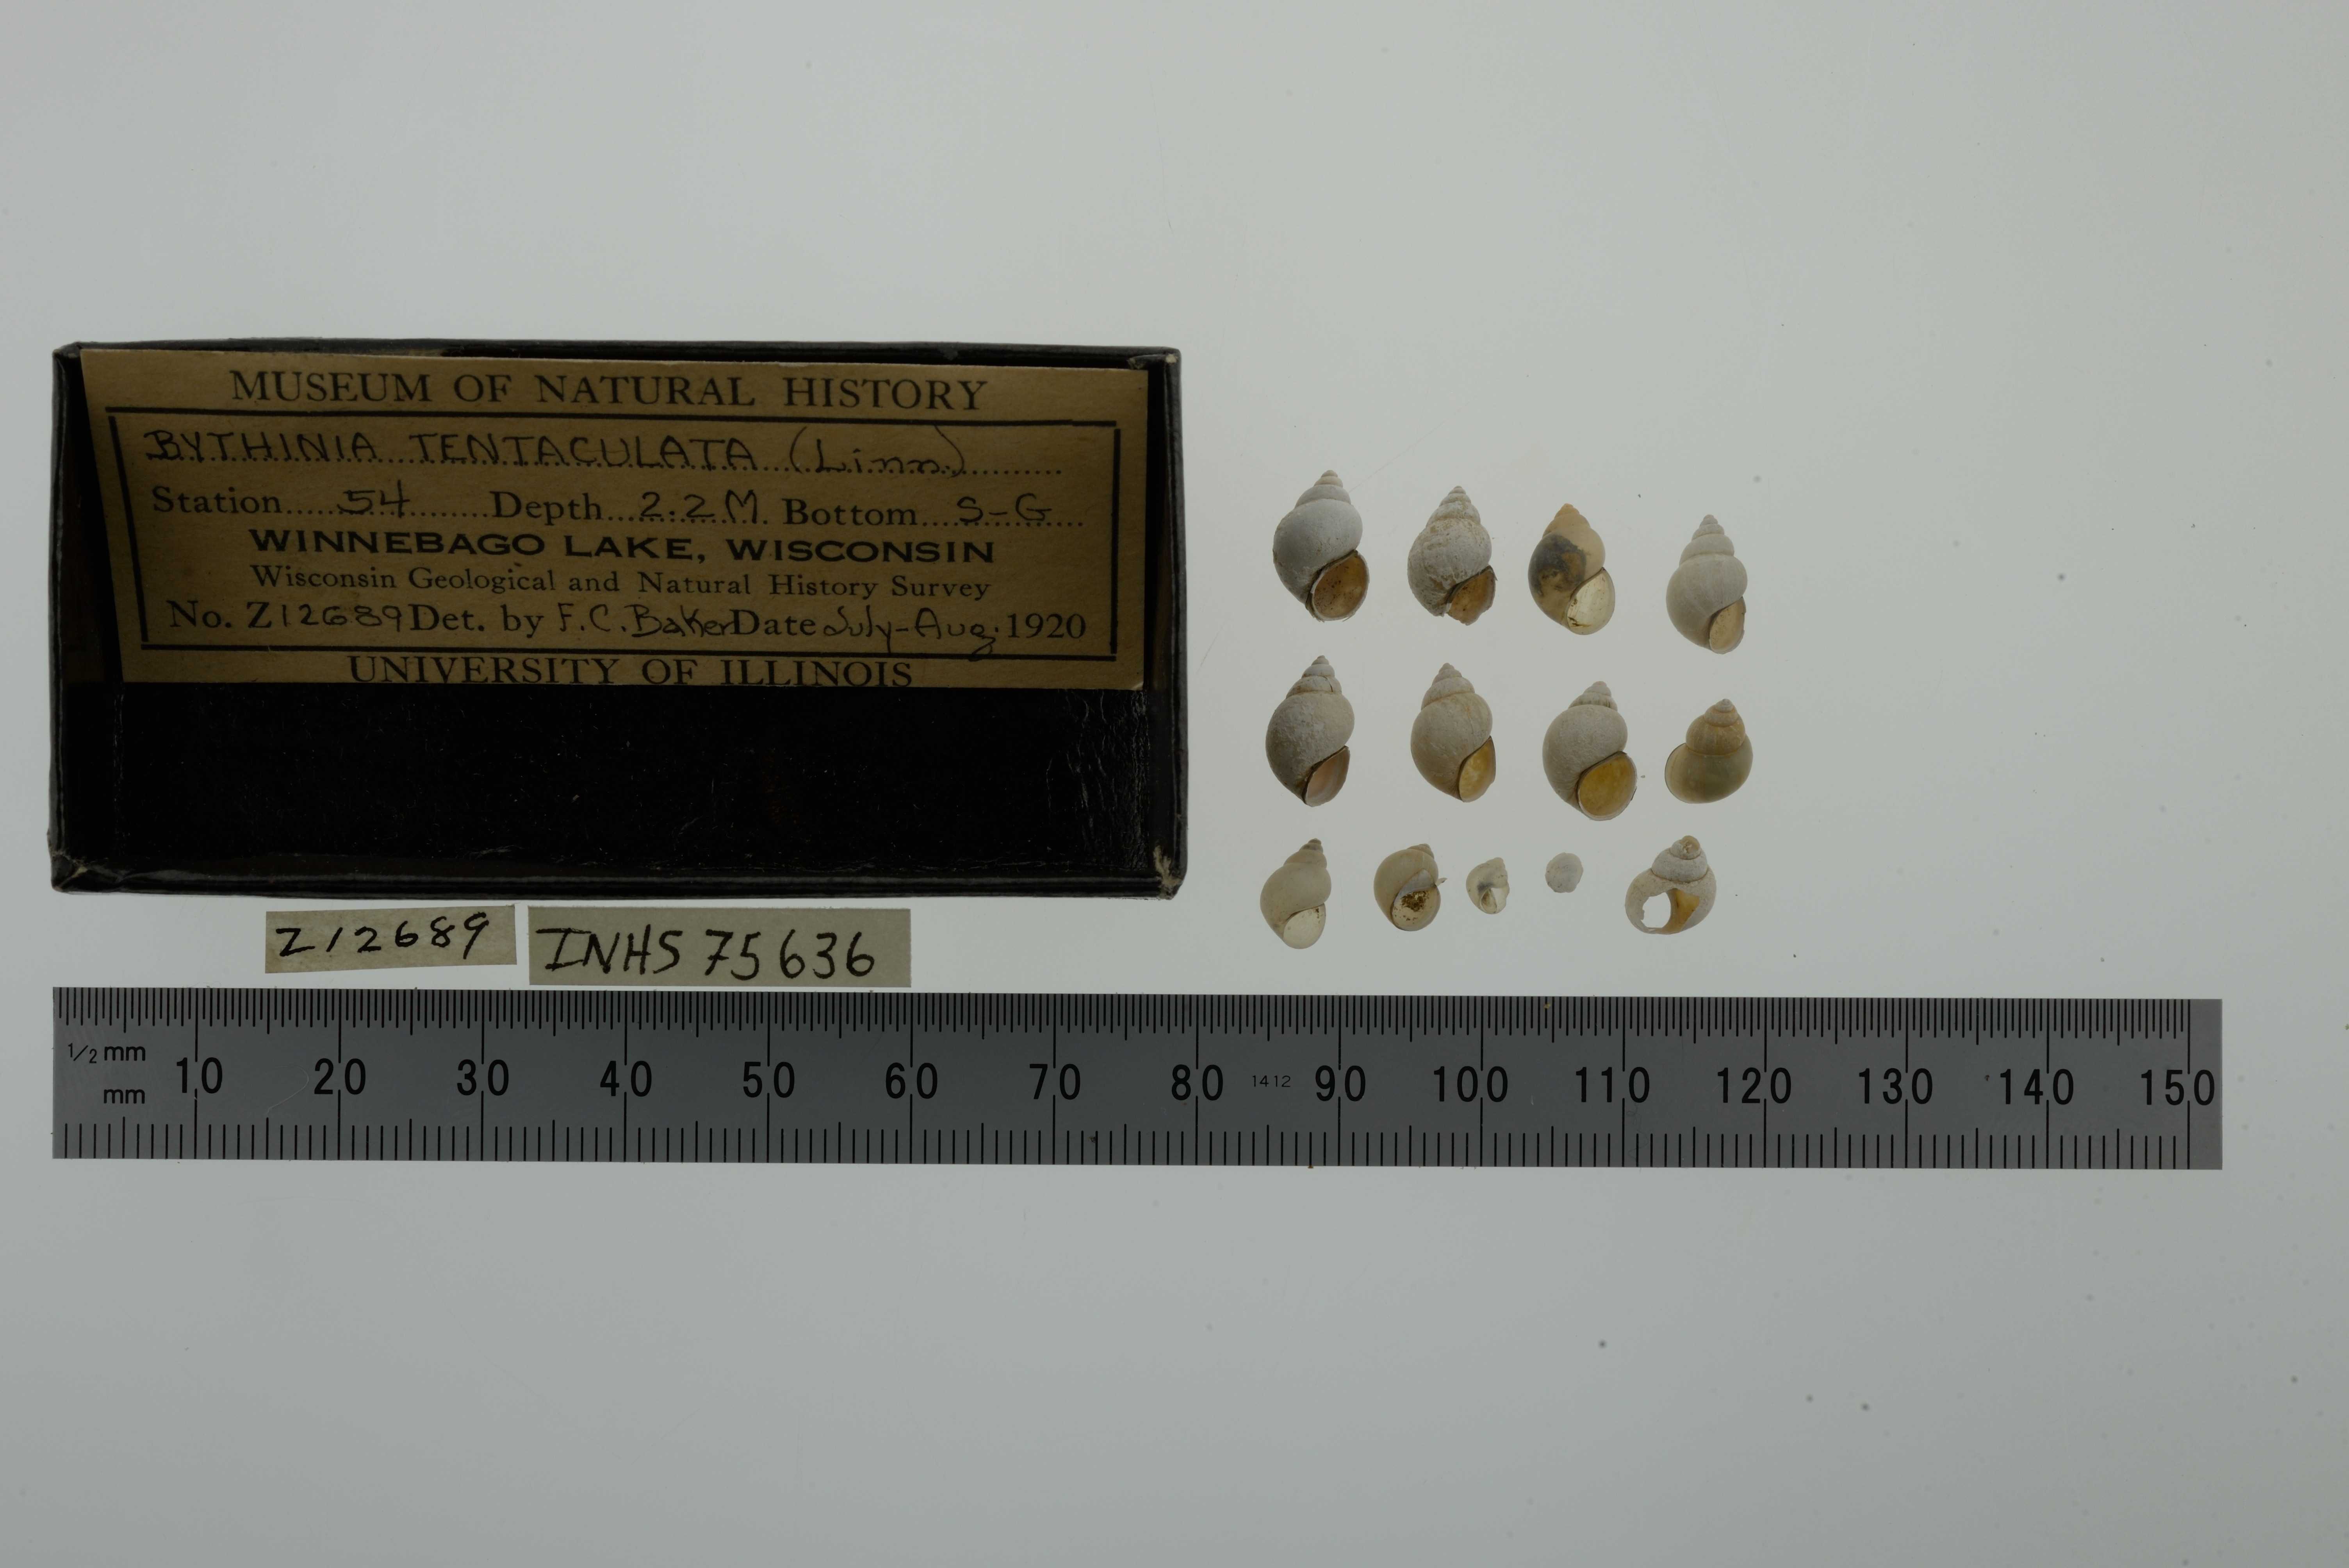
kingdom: Animalia
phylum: Mollusca
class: Gastropoda
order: Littorinimorpha
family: Bithyniidae
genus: Bithynia
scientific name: Bithynia tentaculata
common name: Common bithynia
